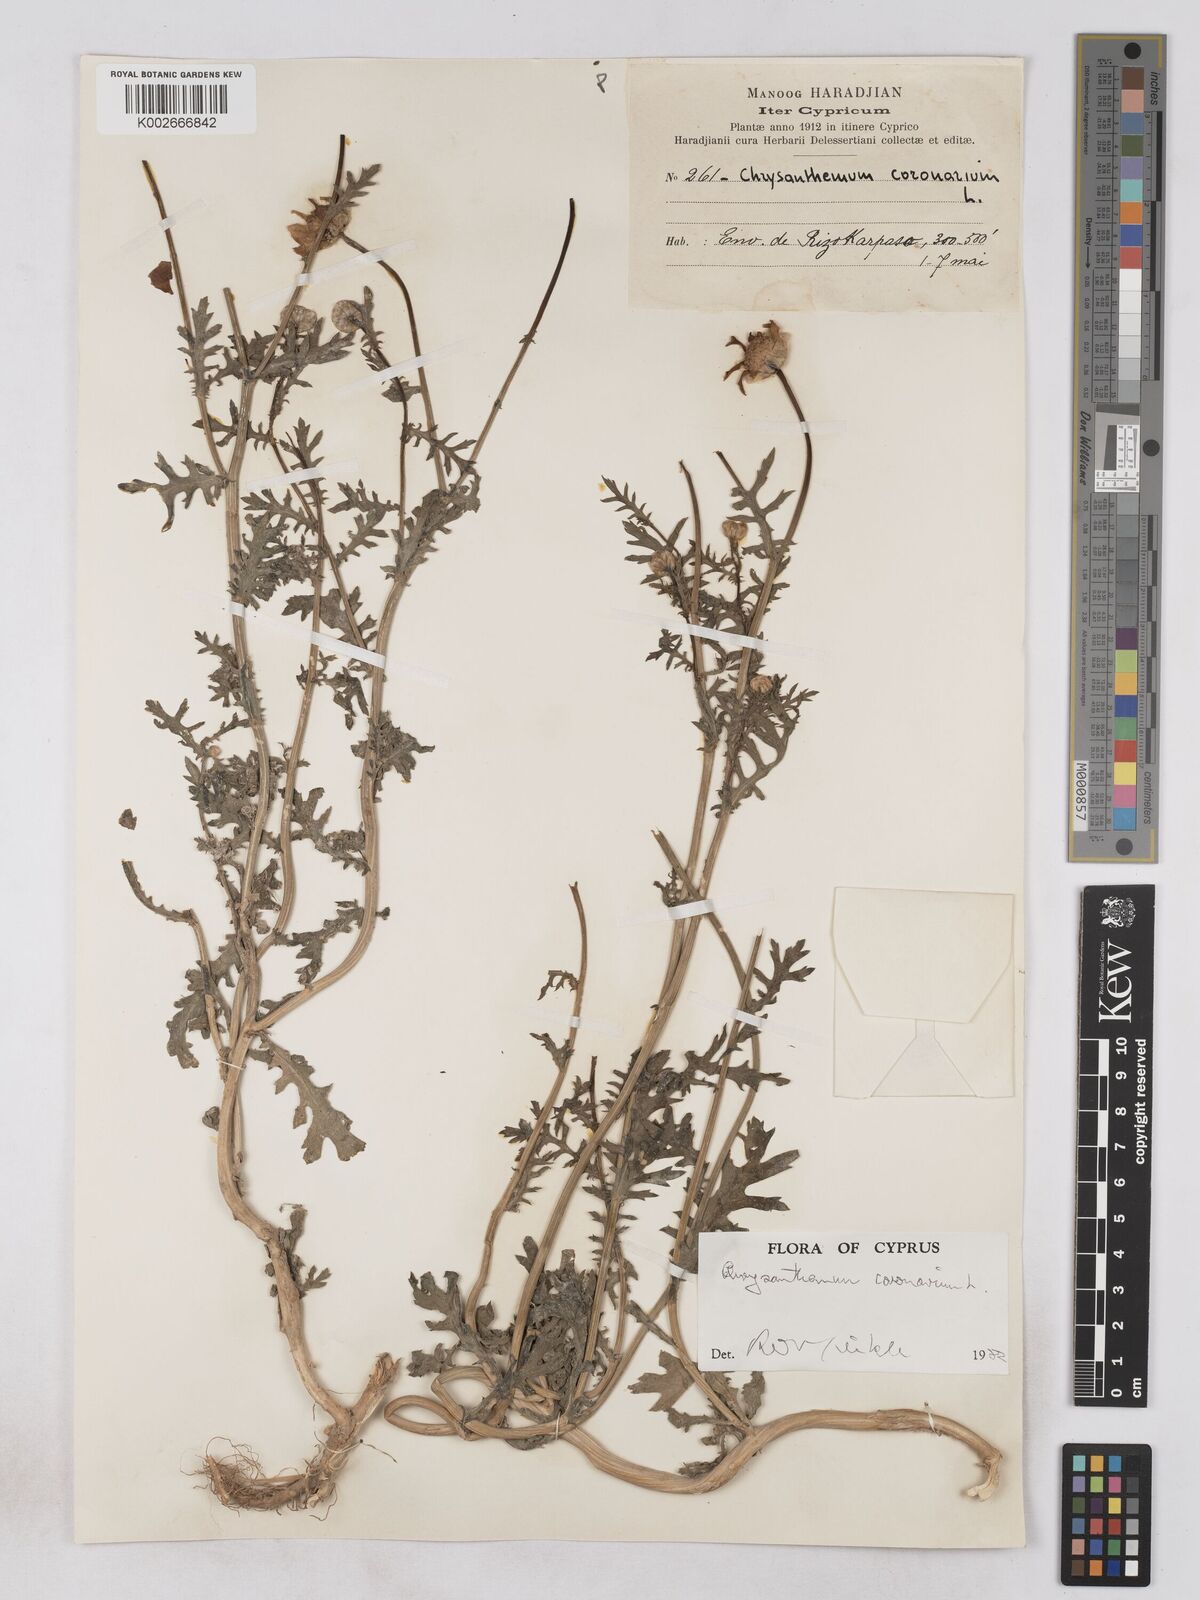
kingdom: Plantae
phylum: Tracheophyta
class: Magnoliopsida
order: Asterales
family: Asteraceae
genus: Glebionis
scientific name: Glebionis coronaria
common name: Crowndaisy
